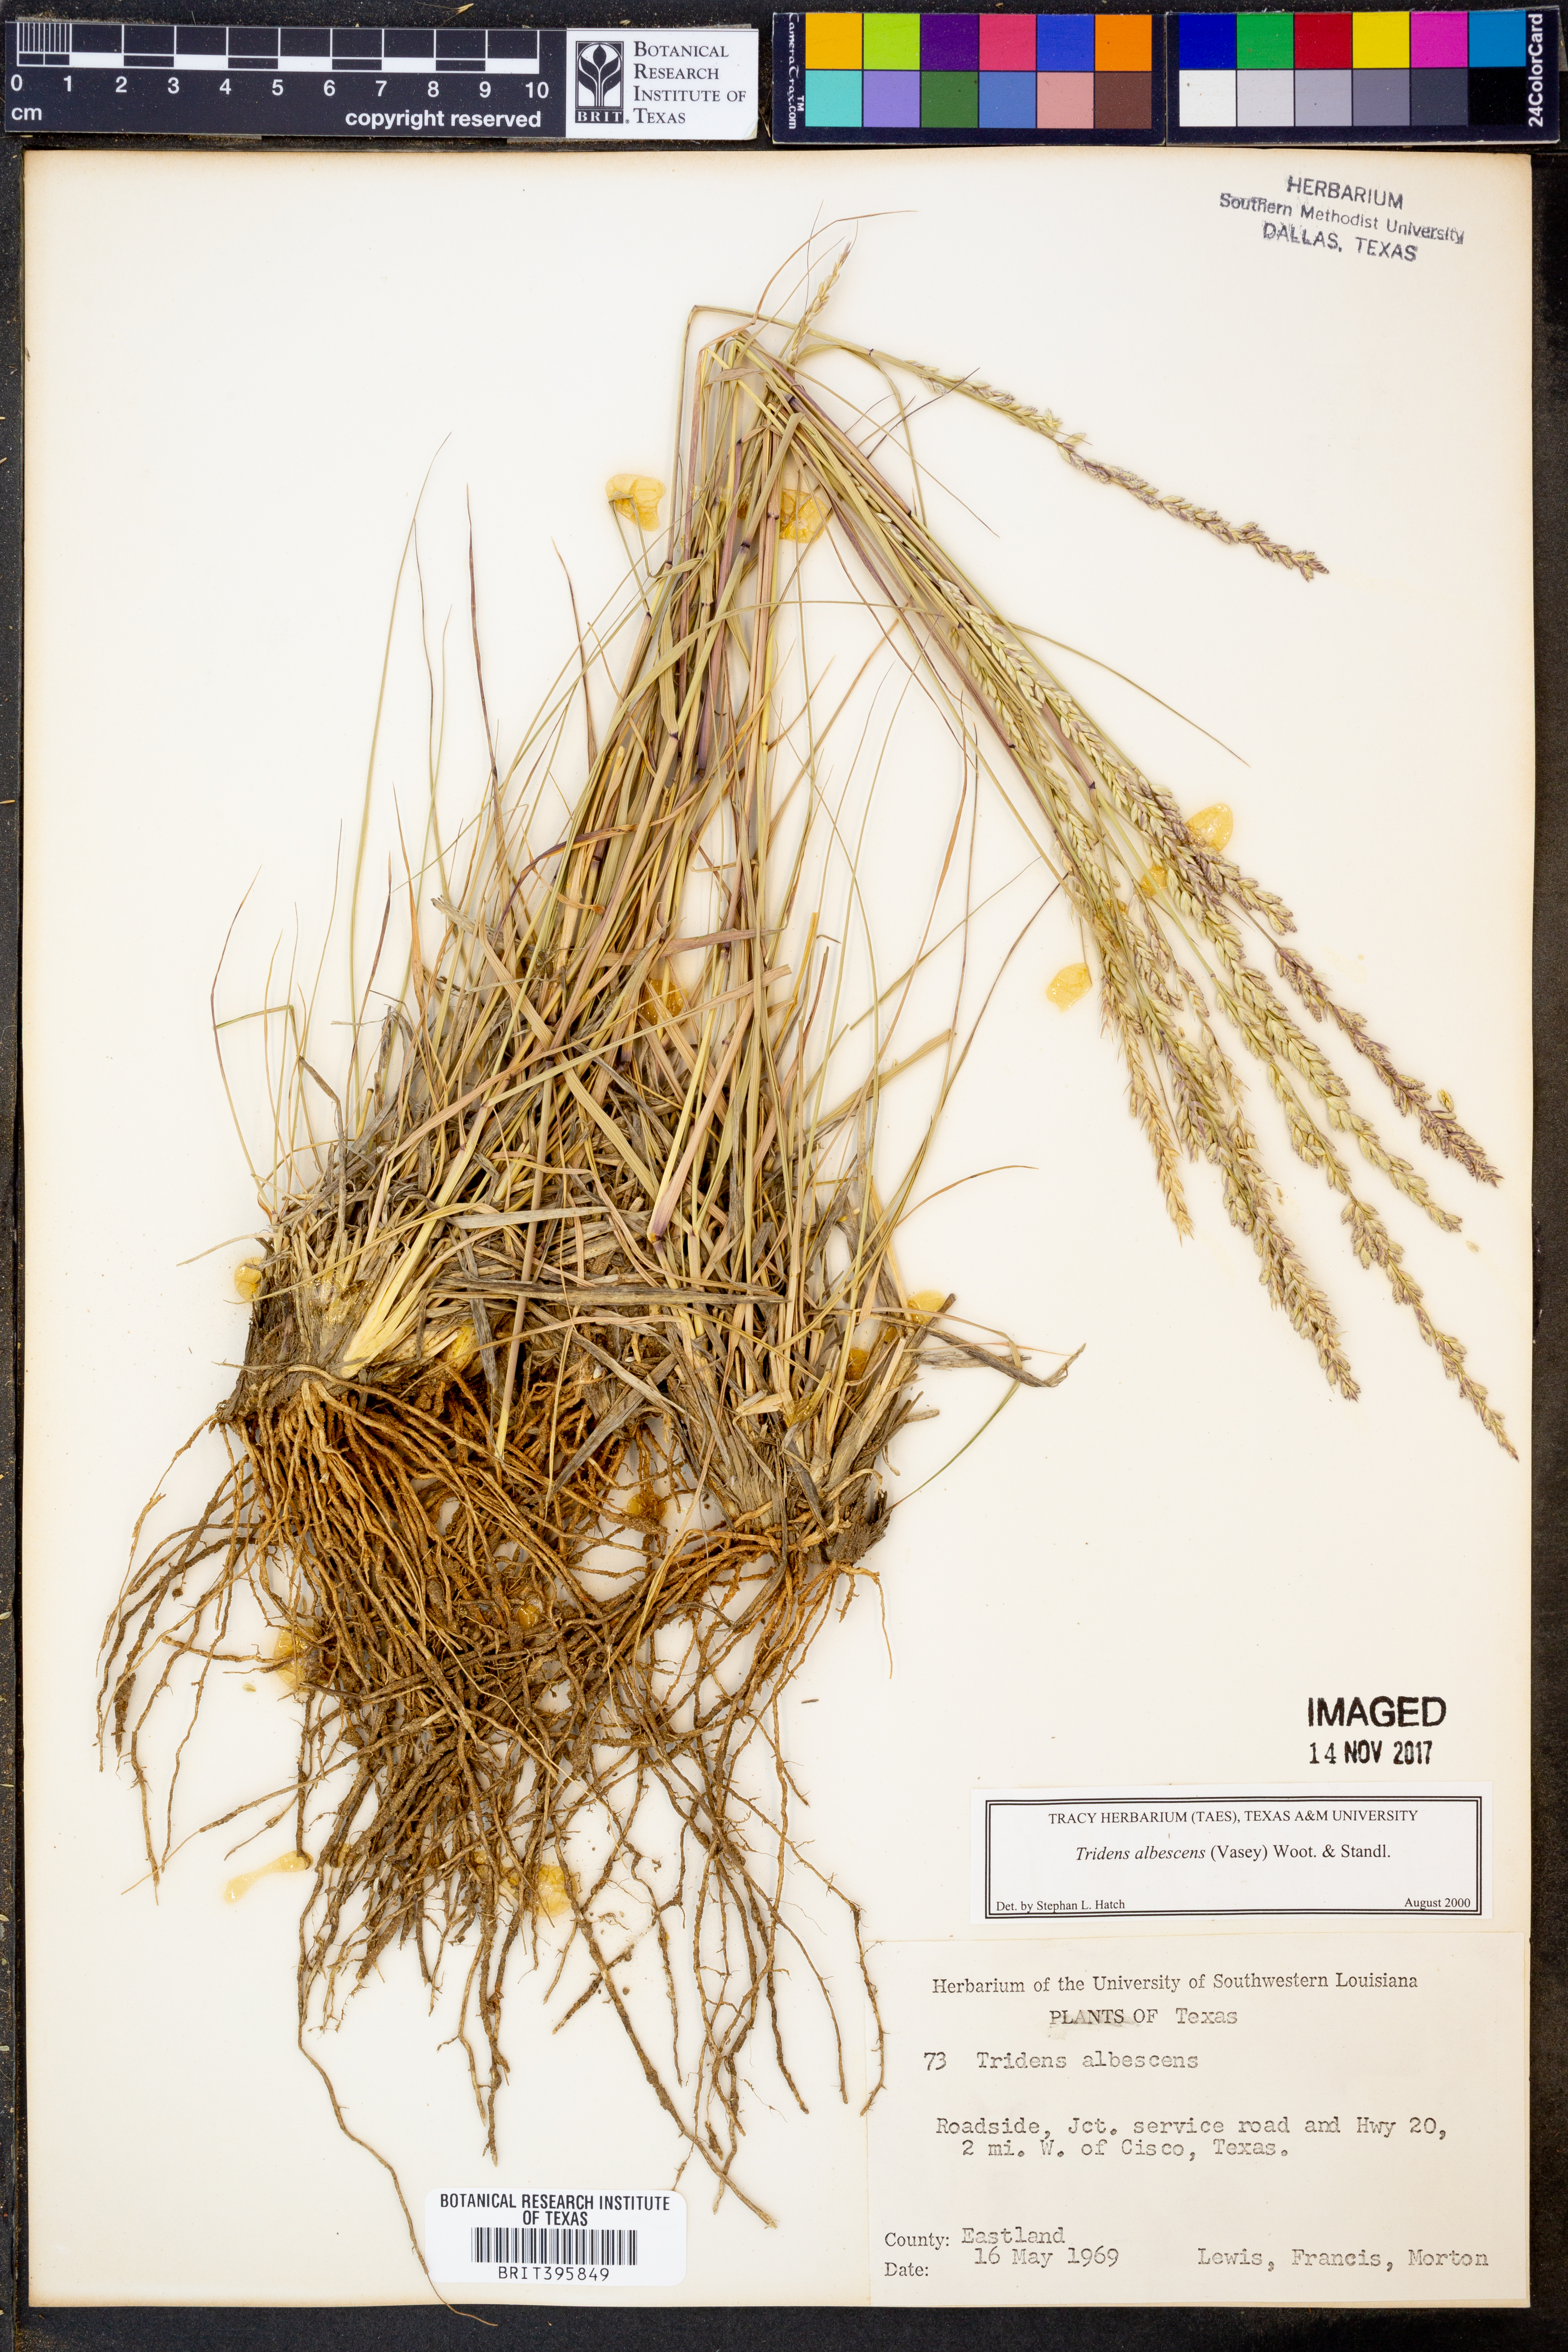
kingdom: Plantae
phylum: Tracheophyta
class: Liliopsida
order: Poales
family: Poaceae
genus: Tridens
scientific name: Tridens albescens
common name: White tridens
